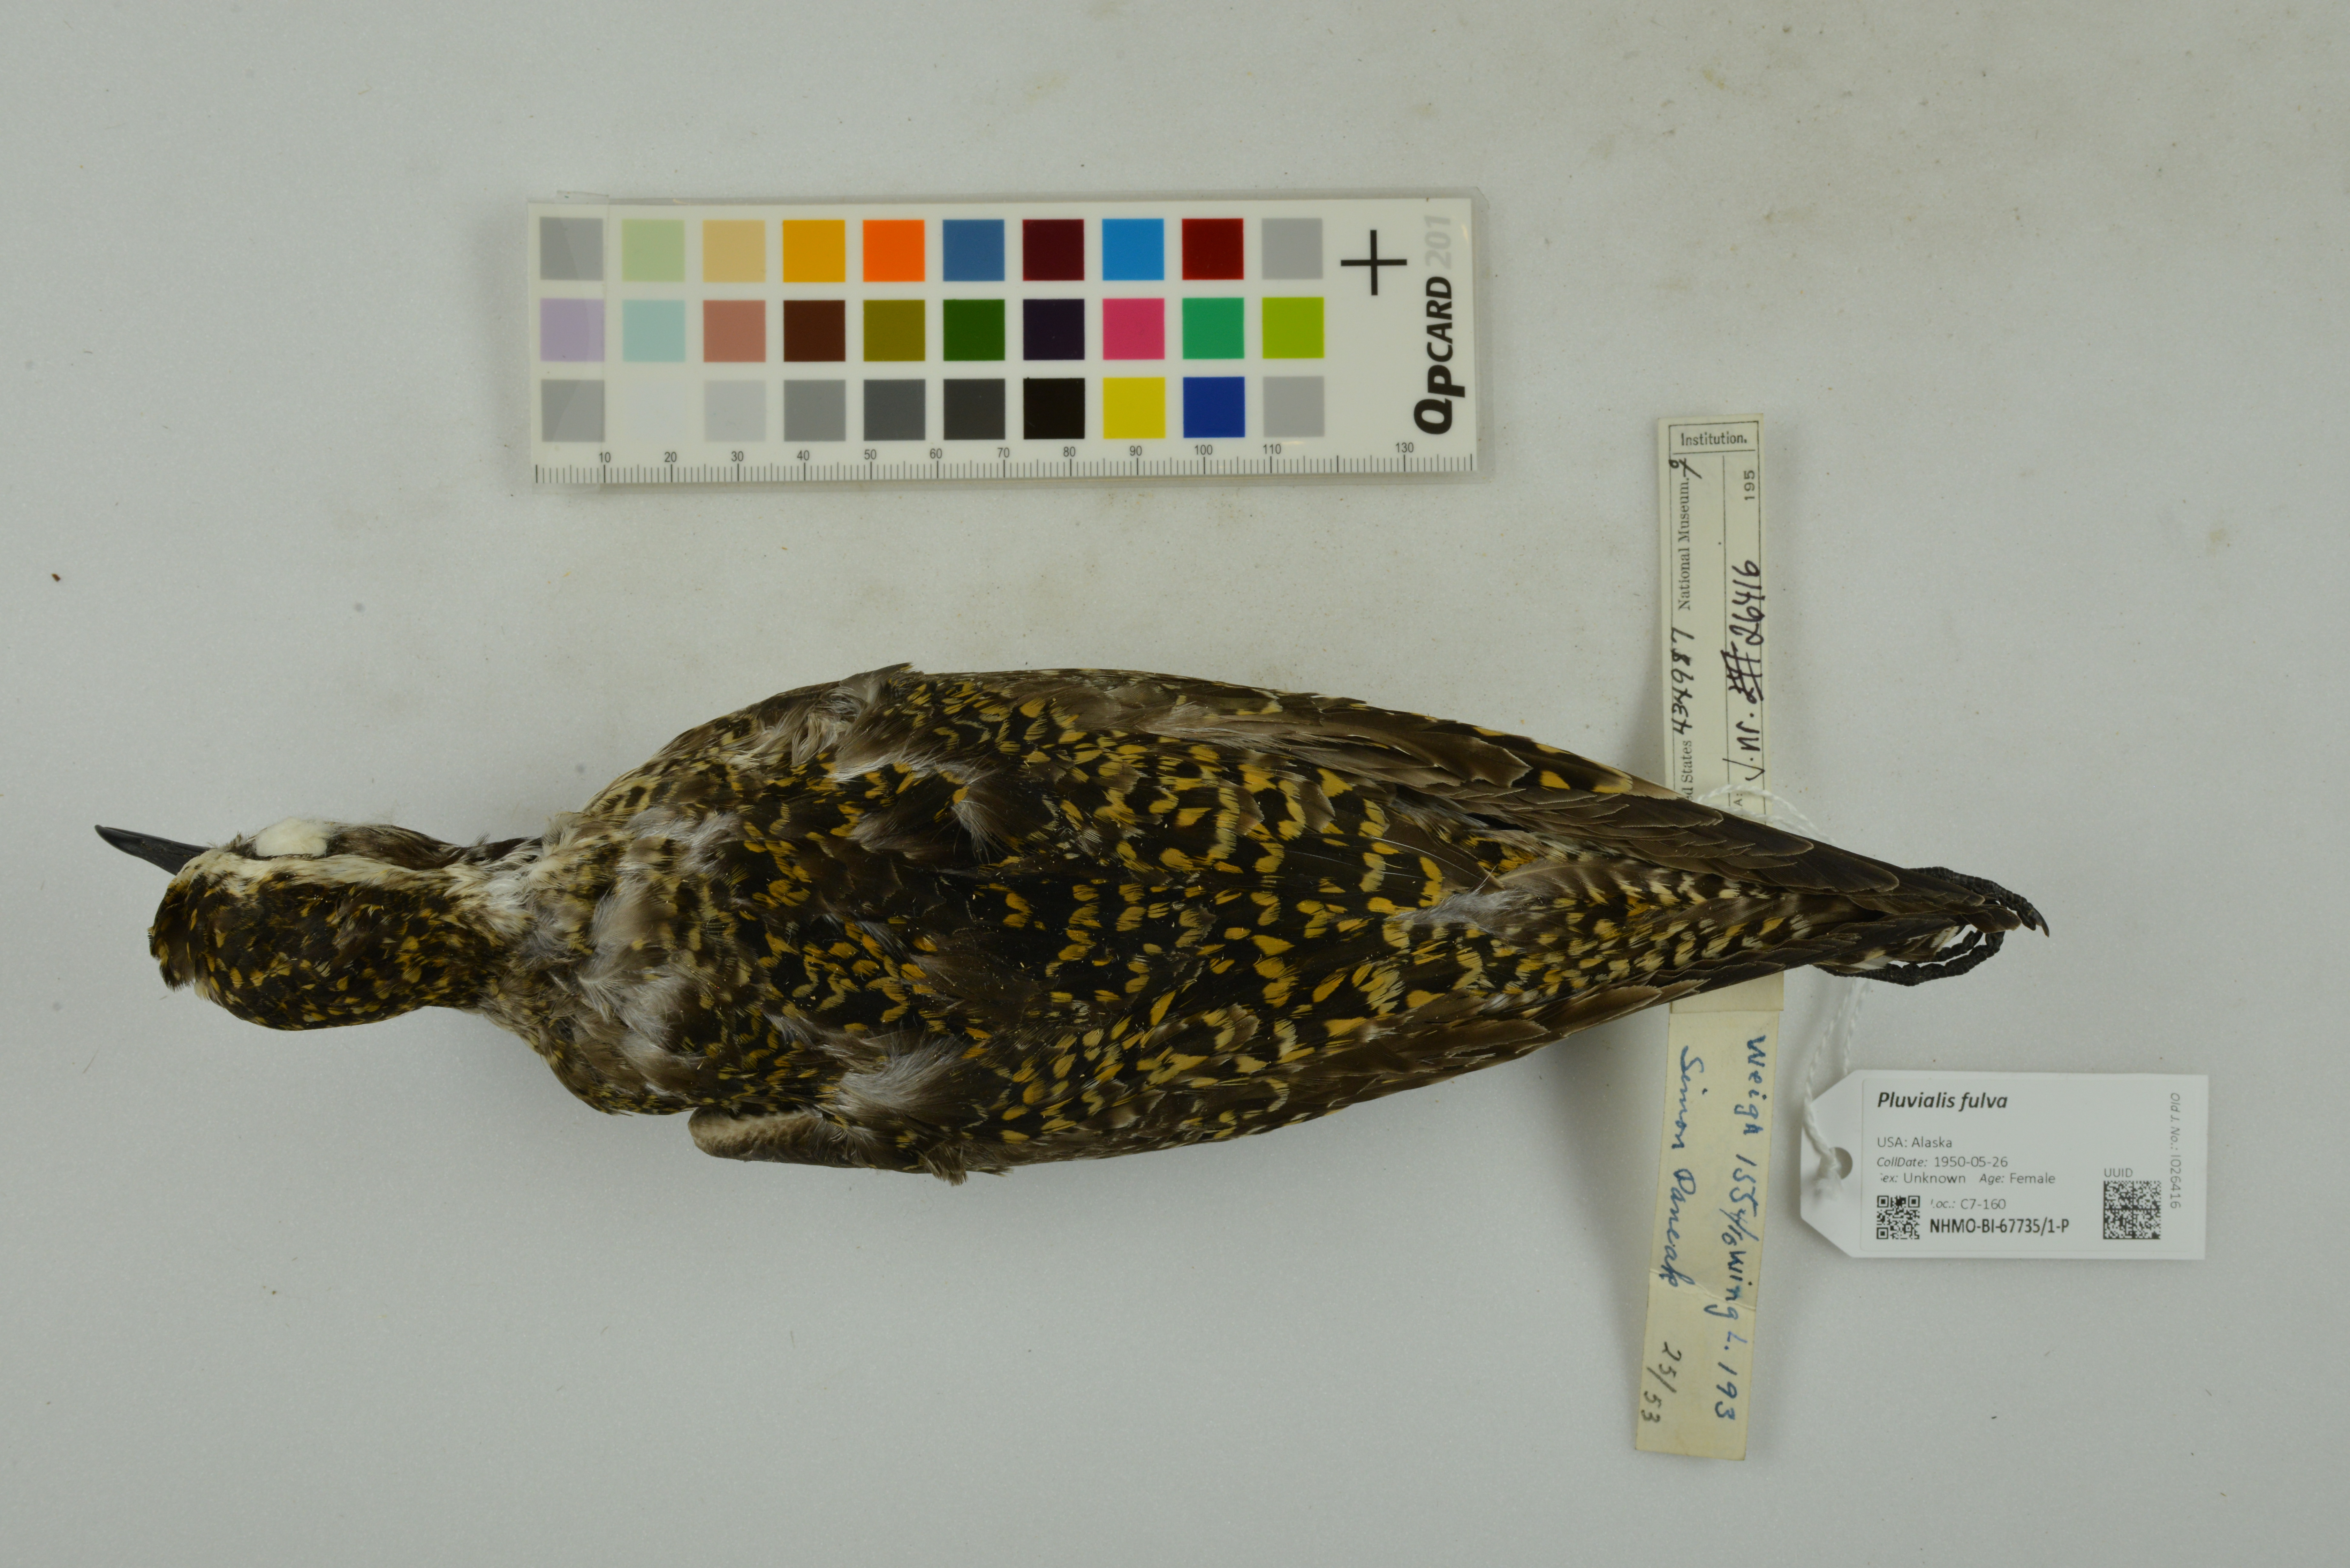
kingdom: Animalia
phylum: Chordata
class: Aves
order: Charadriiformes
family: Charadriidae
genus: Pluvialis
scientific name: Pluvialis fulva
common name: Pacific golden plover
